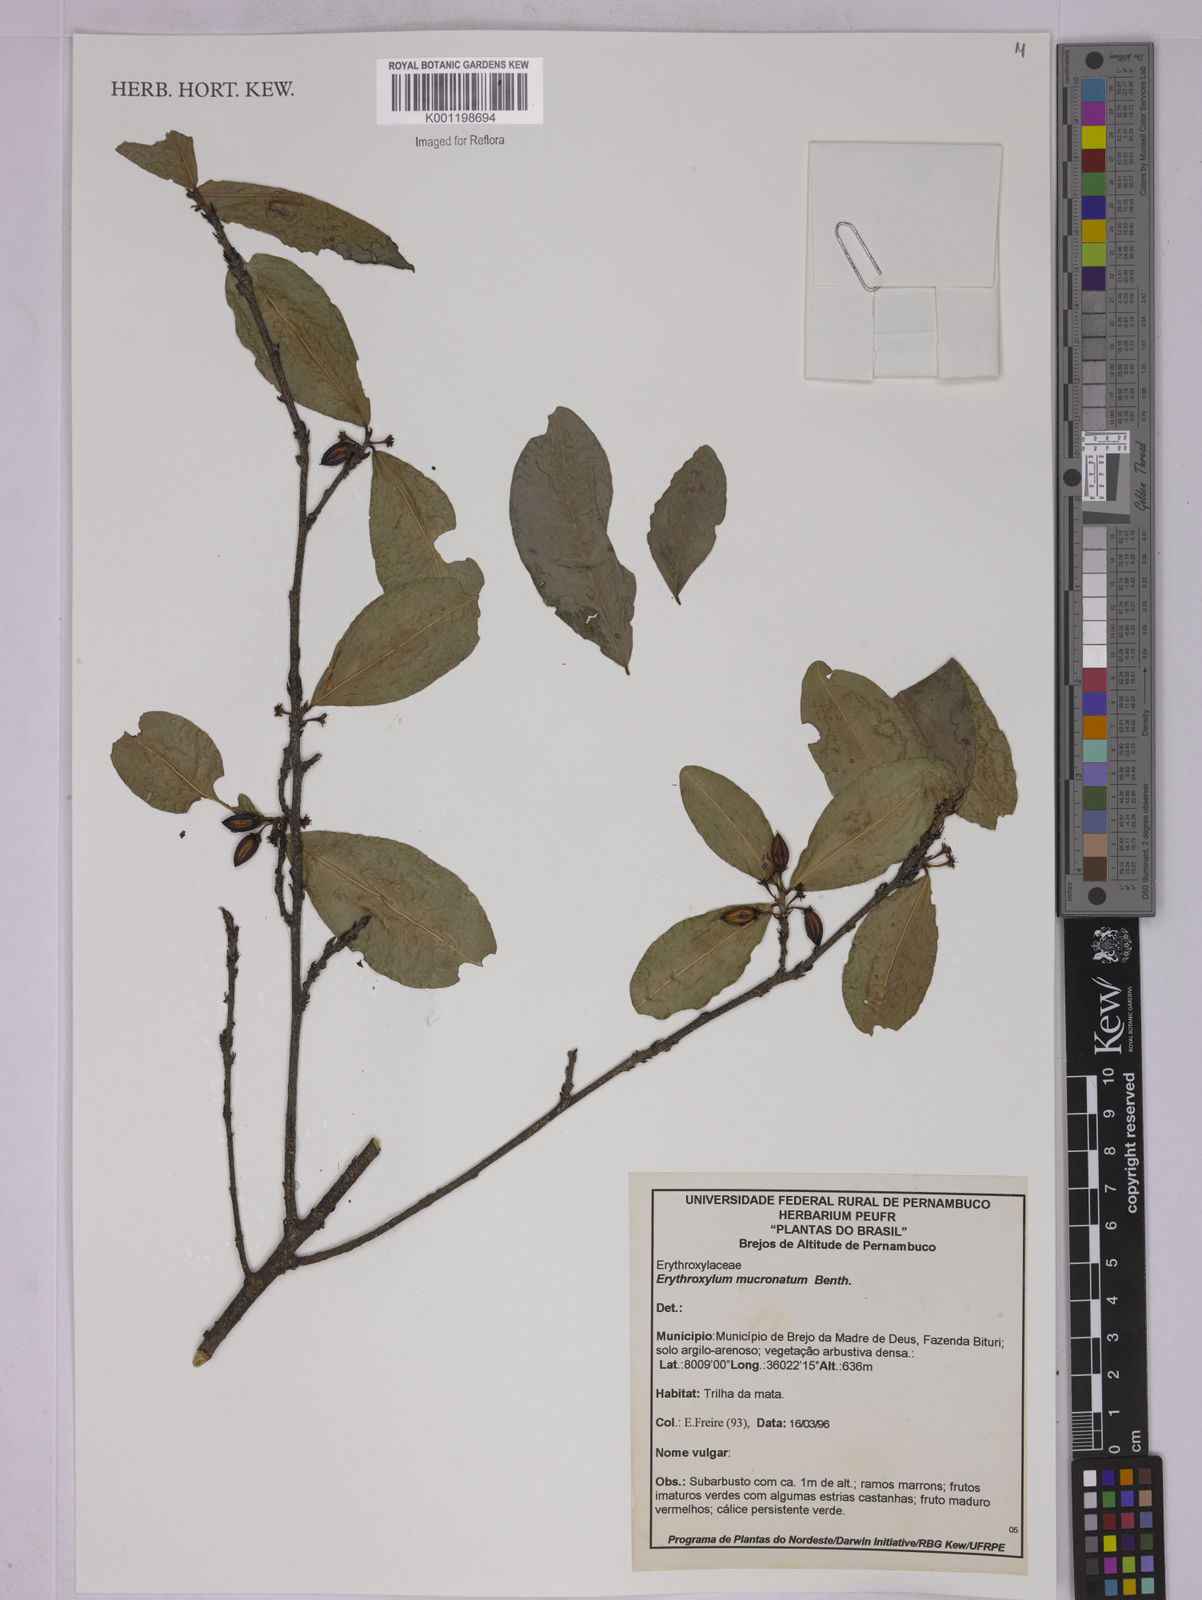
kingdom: Plantae
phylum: Tracheophyta
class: Magnoliopsida
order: Malpighiales
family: Erythroxylaceae
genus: Erythroxylum
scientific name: Erythroxylum mucronatum
